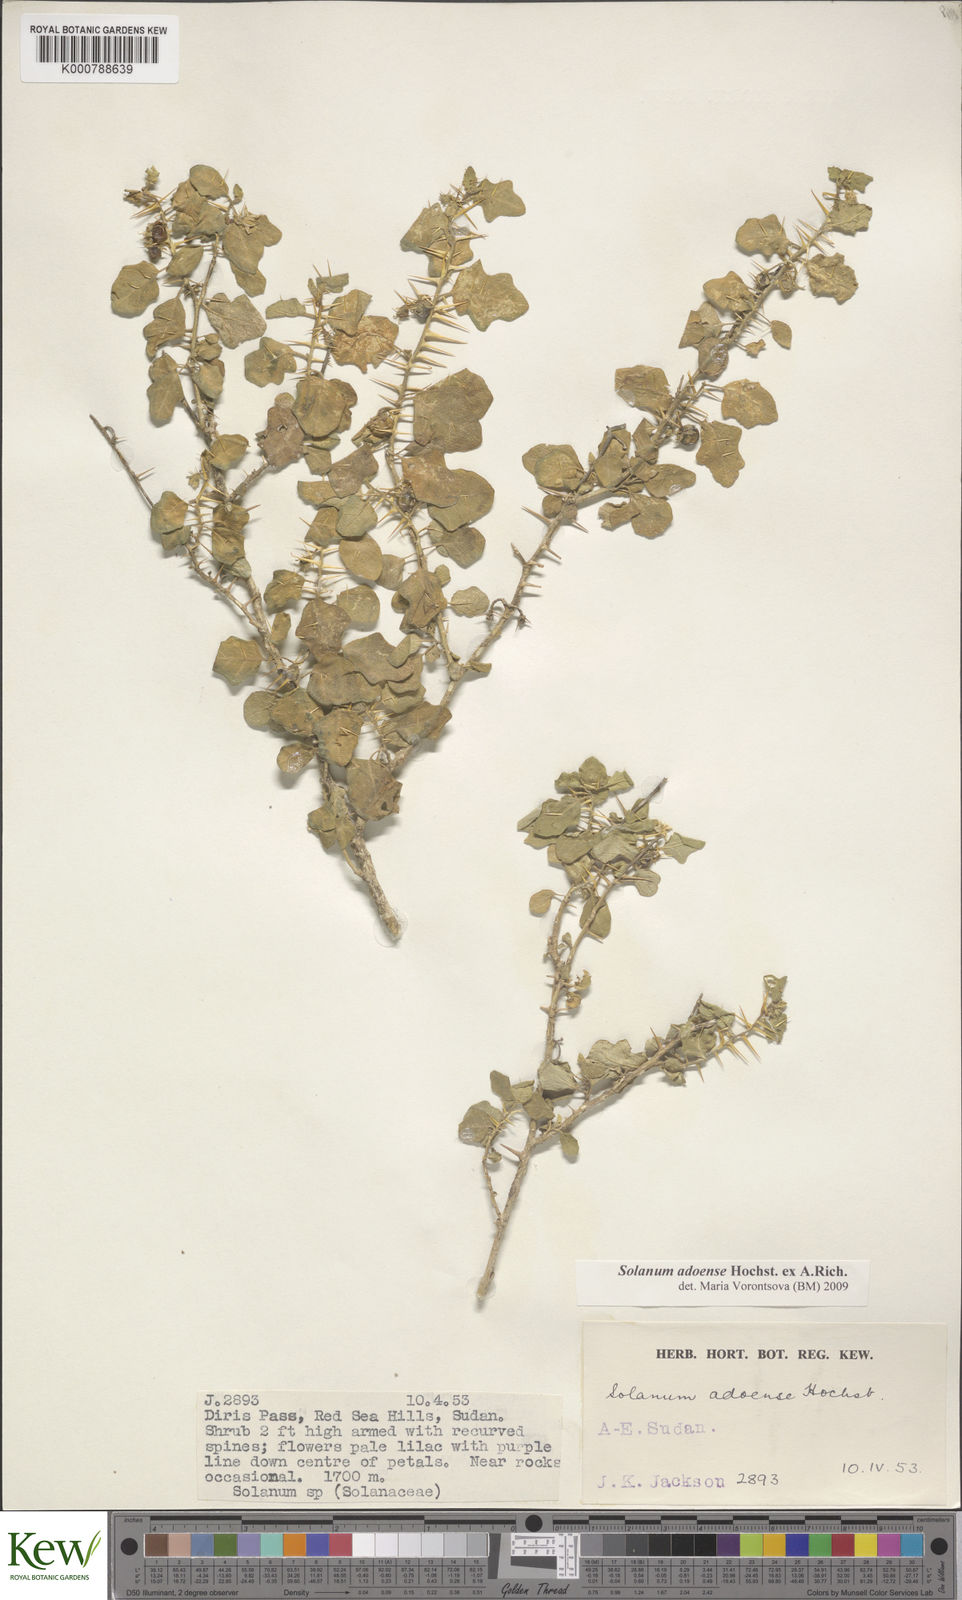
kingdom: Plantae
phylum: Tracheophyta
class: Magnoliopsida
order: Solanales
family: Solanaceae
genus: Solanum
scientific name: Solanum adoense
